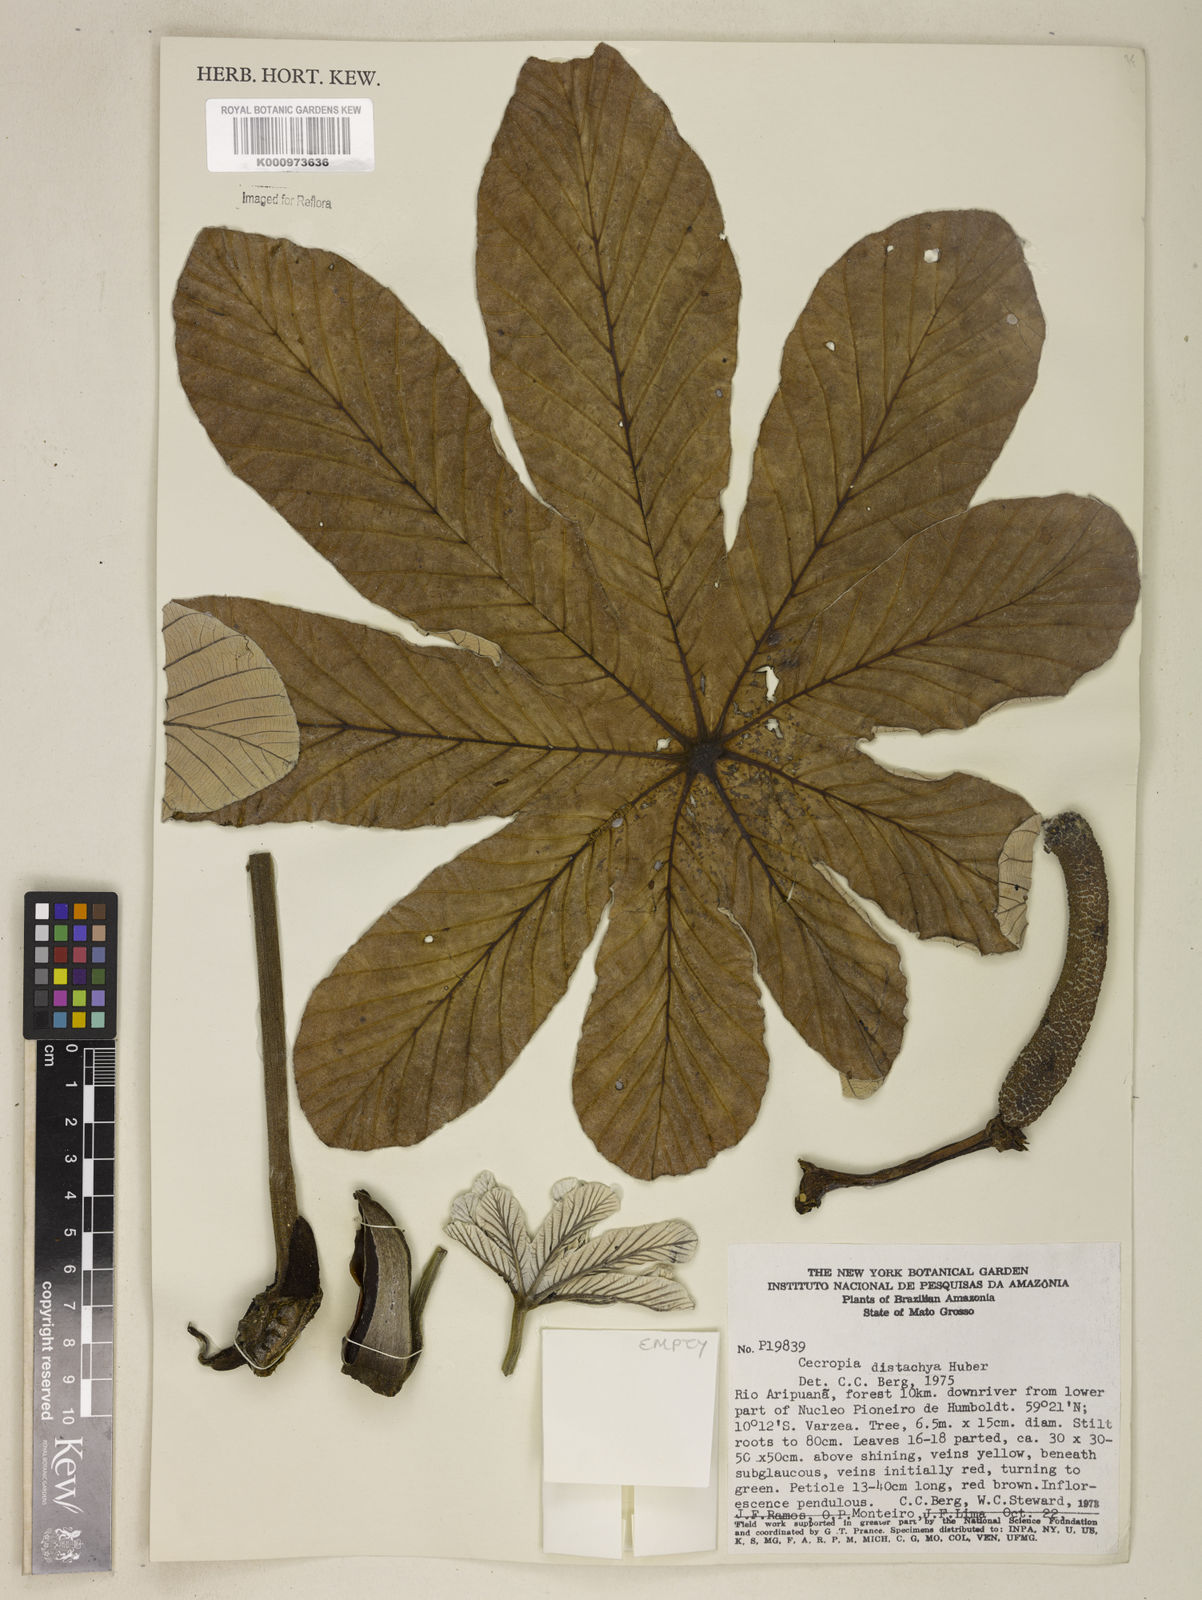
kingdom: Plantae
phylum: Tracheophyta
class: Magnoliopsida
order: Rosales
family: Urticaceae
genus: Cecropia
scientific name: Cecropia distachya
